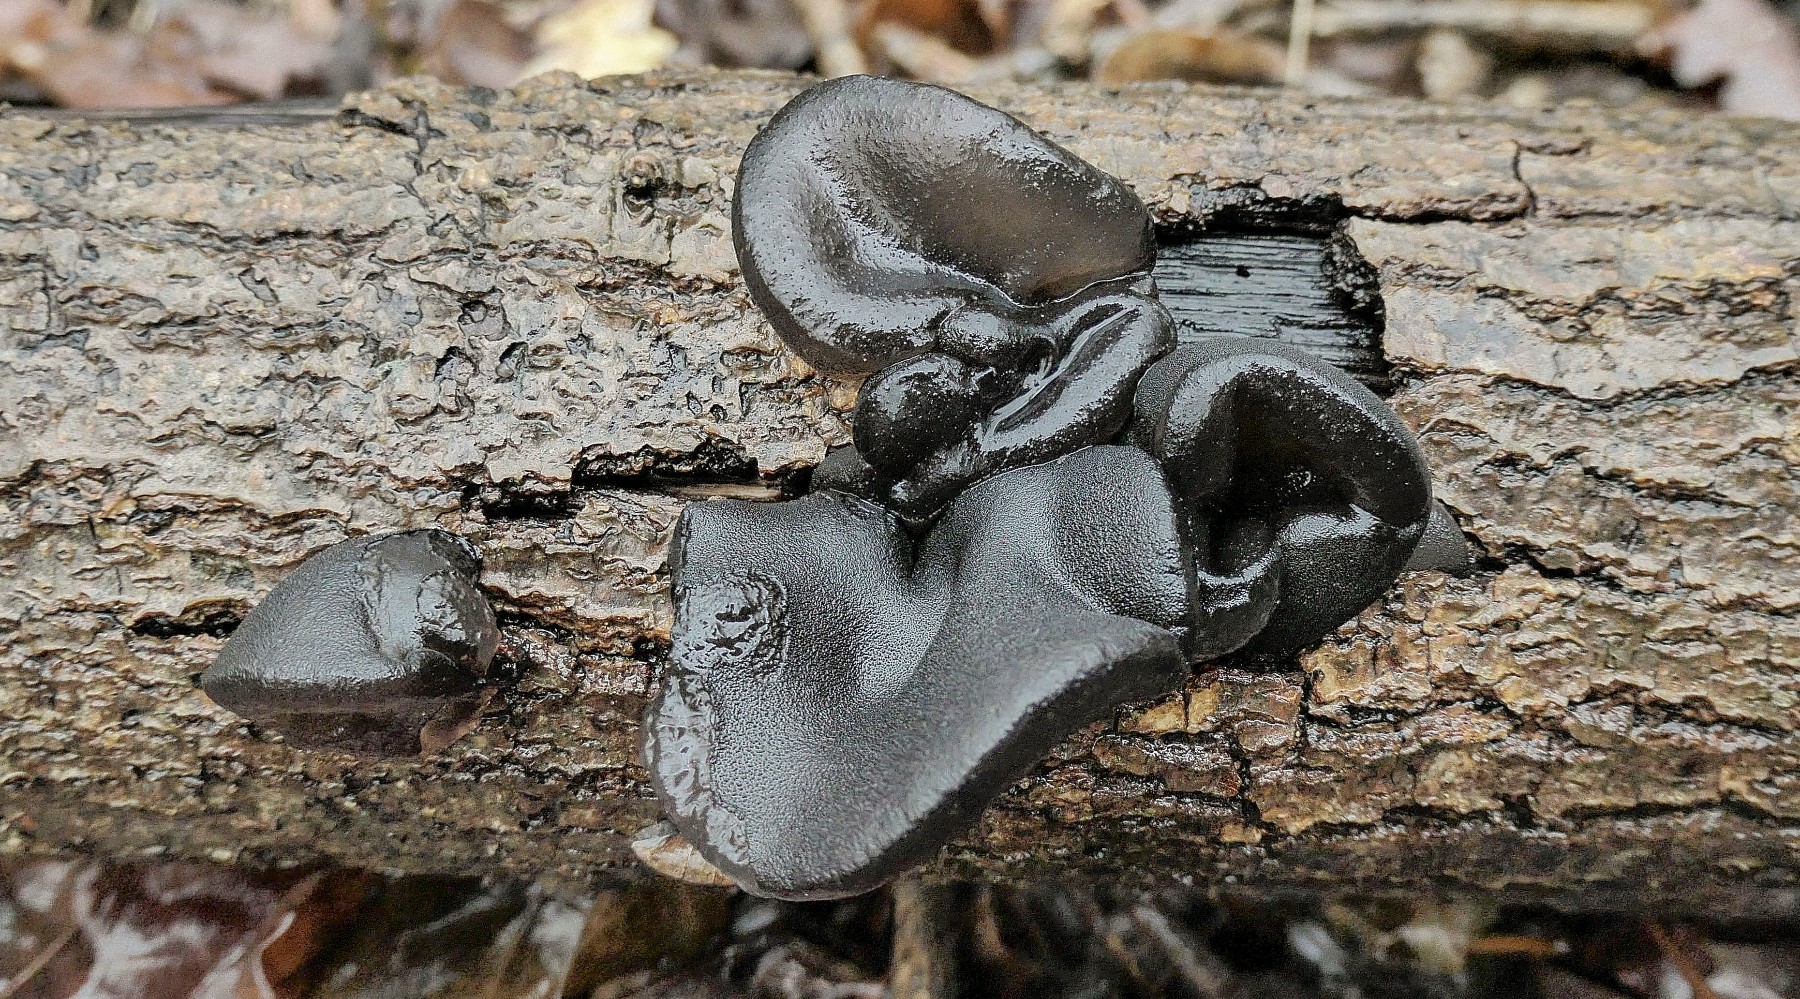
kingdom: Fungi
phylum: Basidiomycota
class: Agaricomycetes
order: Auriculariales
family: Auriculariaceae
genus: Exidia
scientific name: Exidia glandulosa
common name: ege-bævretop
